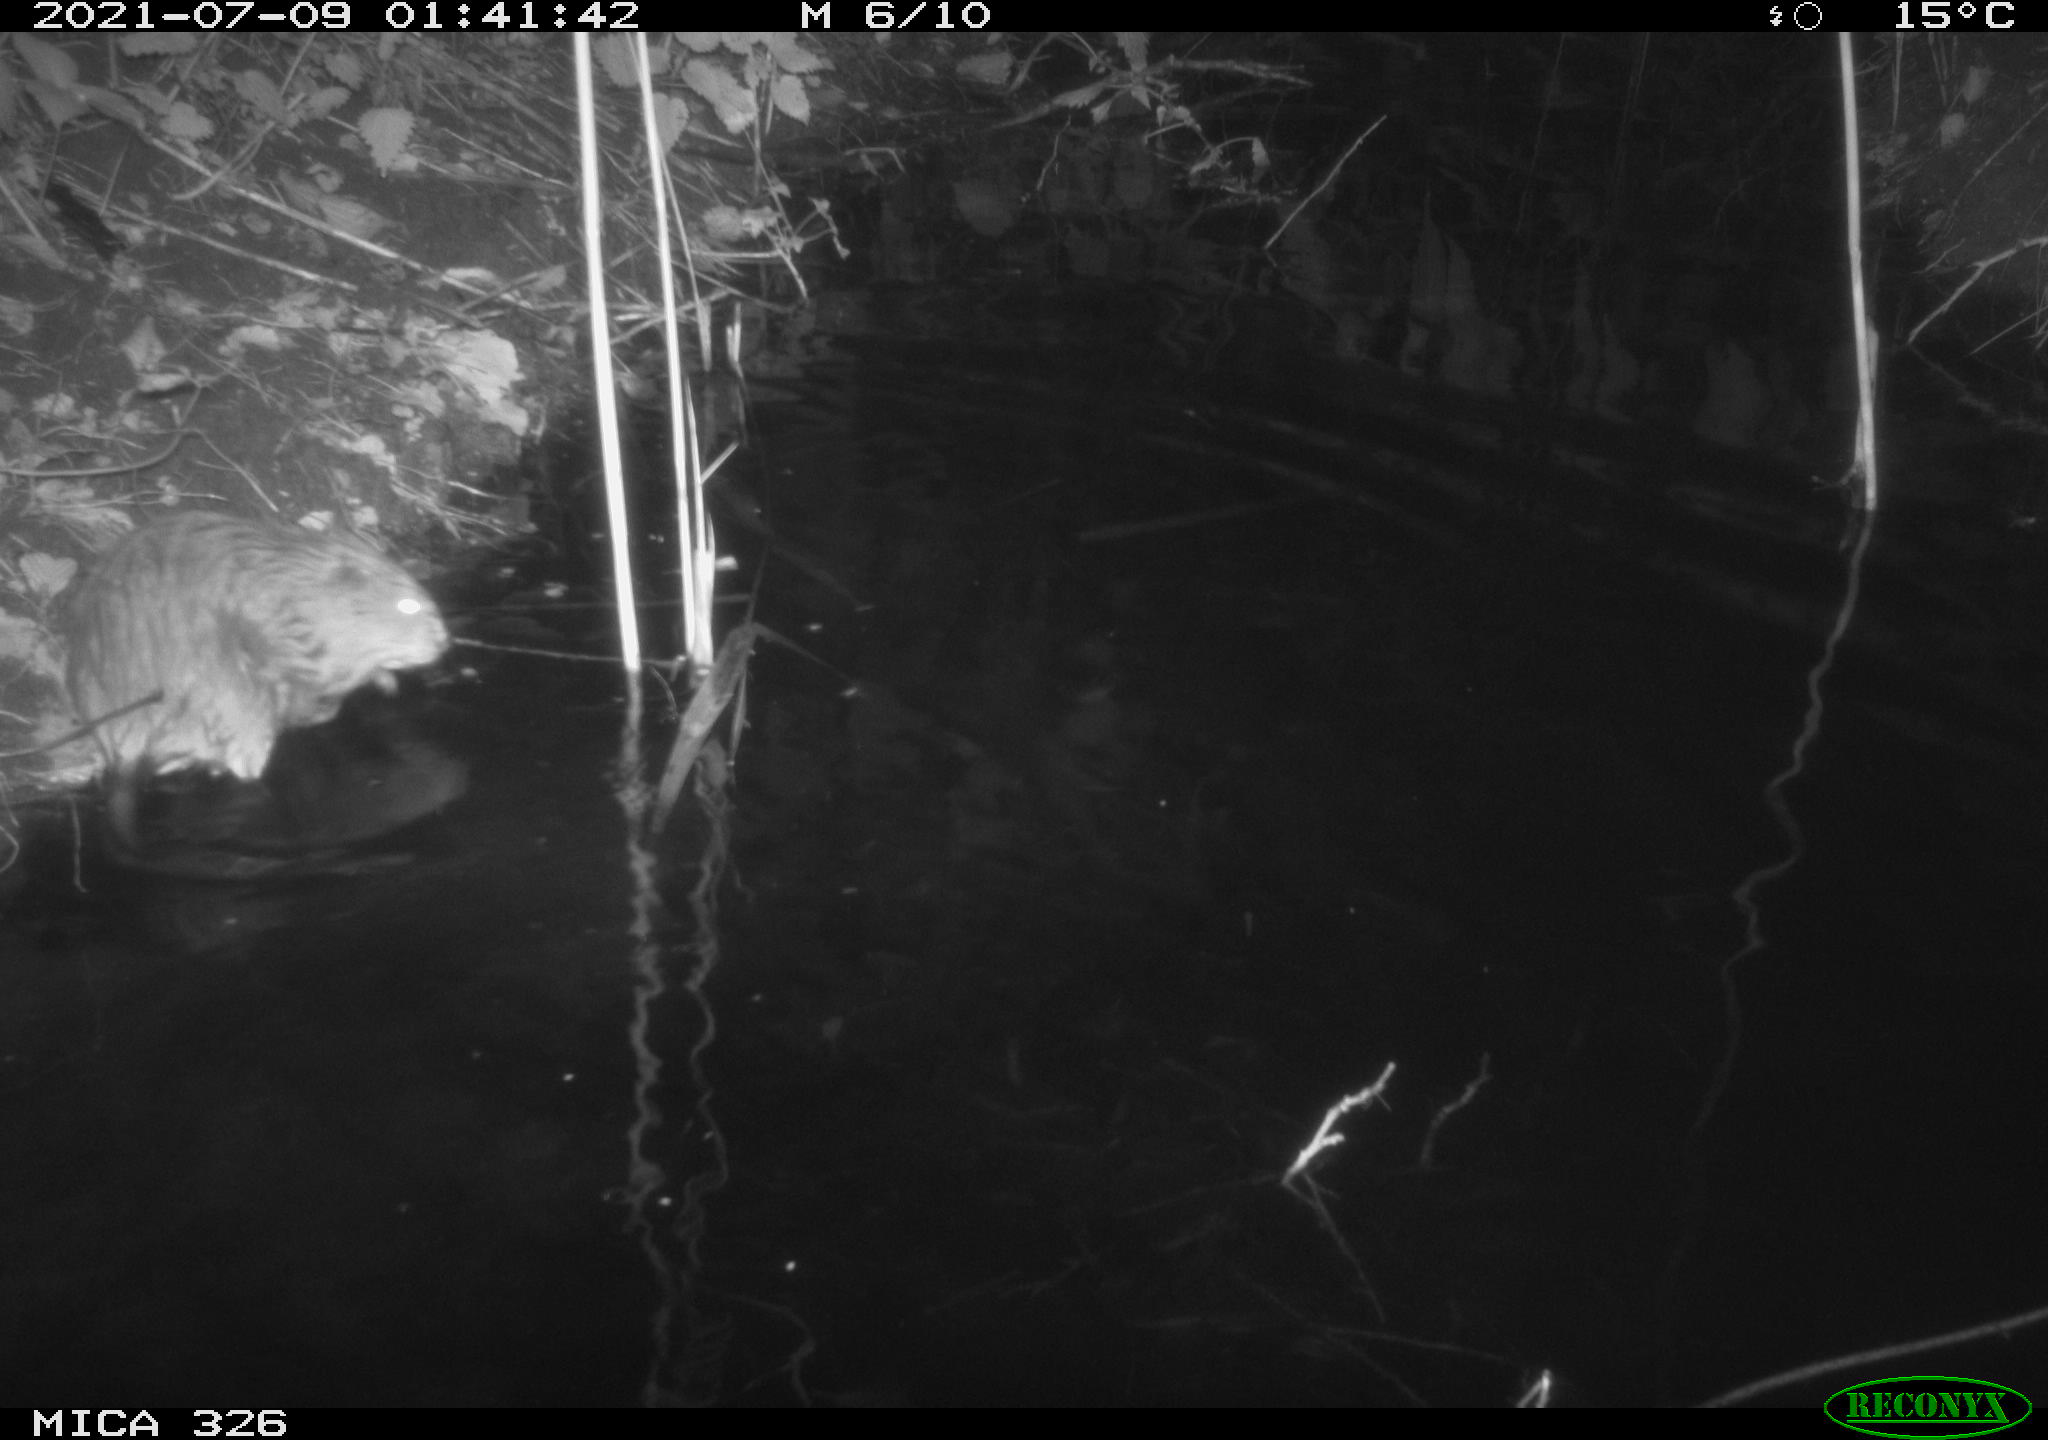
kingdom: Animalia
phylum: Chordata
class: Mammalia
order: Rodentia
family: Cricetidae
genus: Ondatra
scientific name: Ondatra zibethicus
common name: Muskrat
